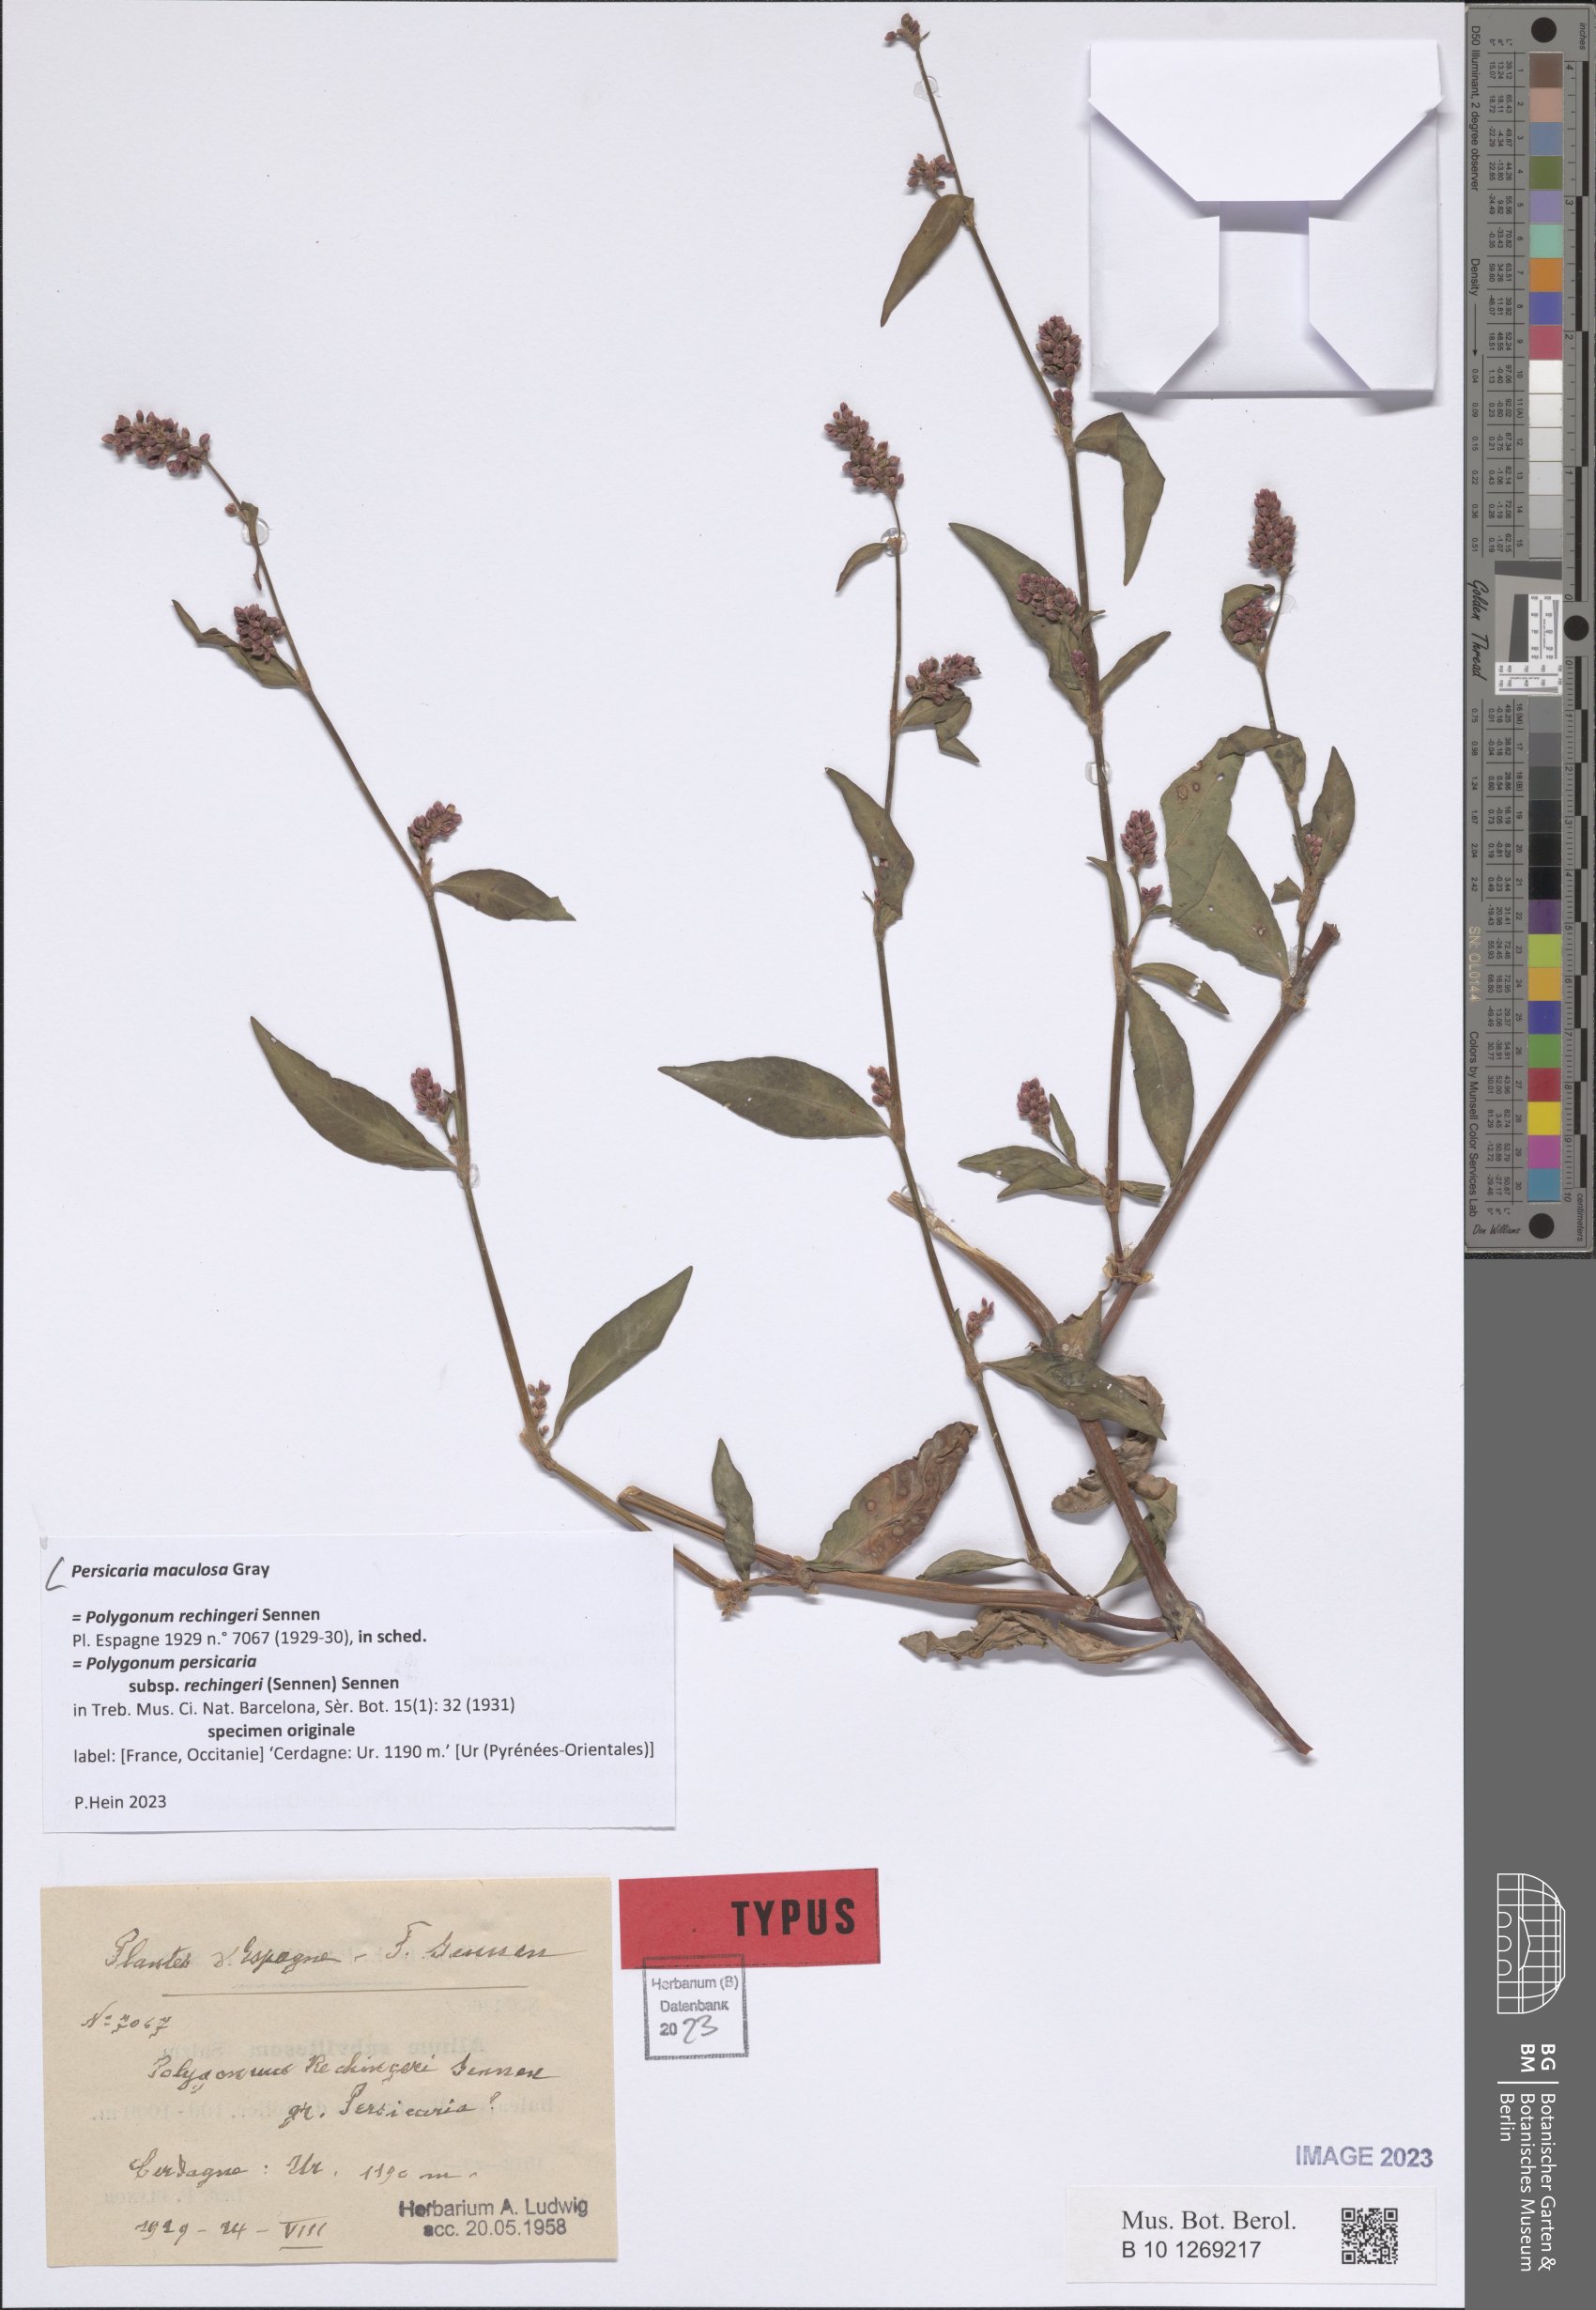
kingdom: Plantae
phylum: Tracheophyta
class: Magnoliopsida
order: Caryophyllales
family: Polygonaceae
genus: Persicaria
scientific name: Persicaria maculosa
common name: Redshank
